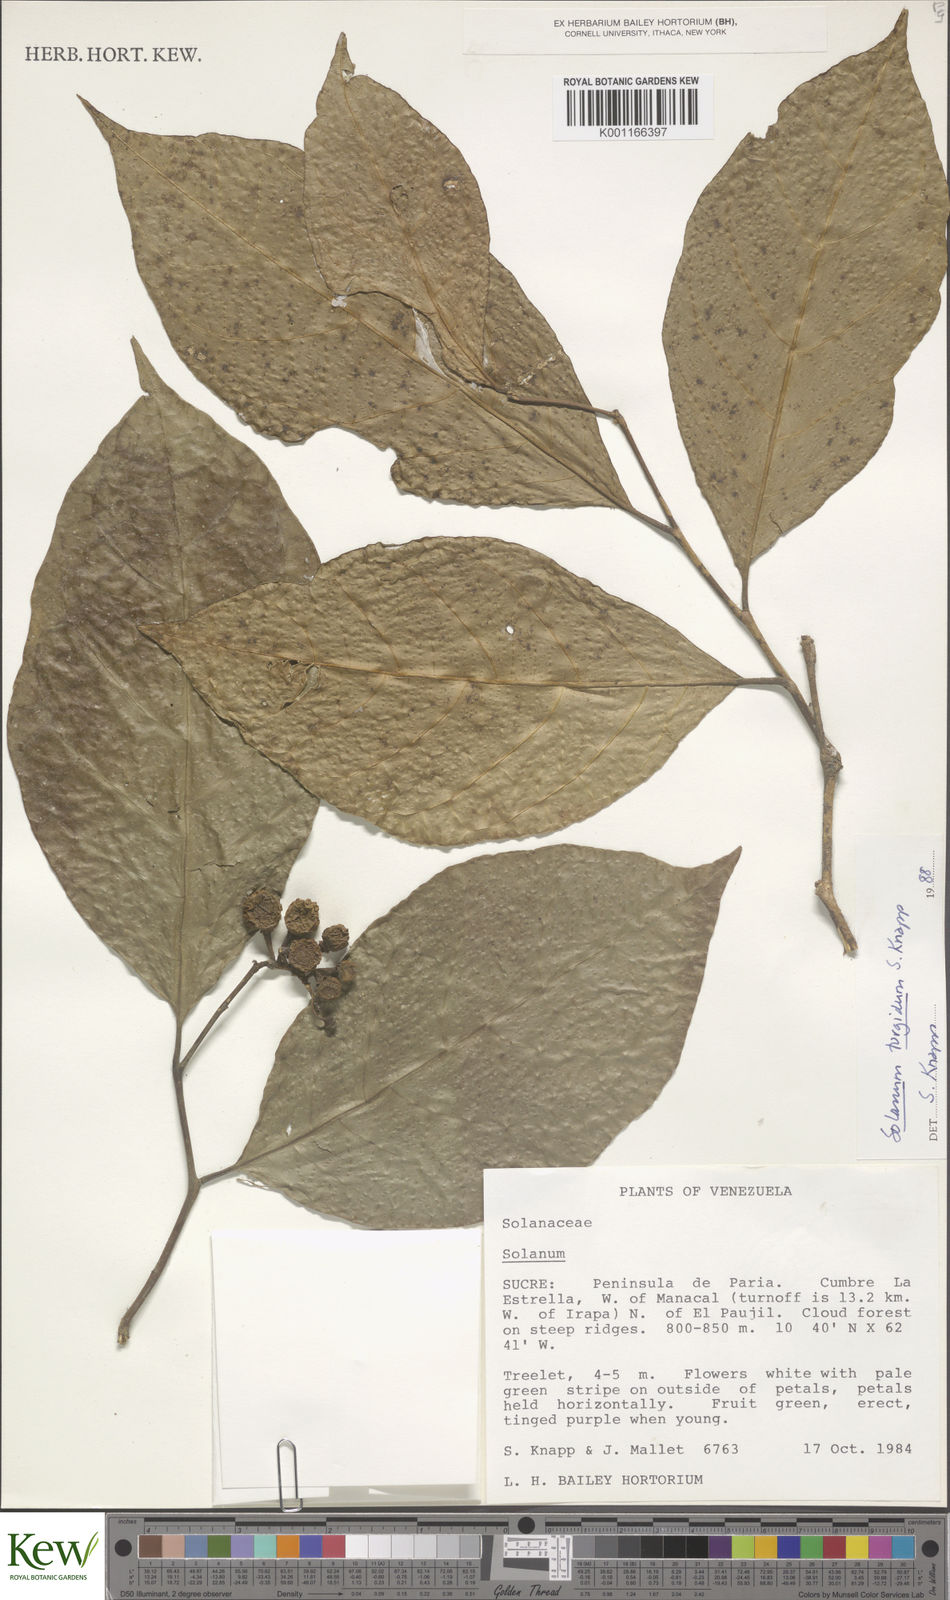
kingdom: Plantae
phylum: Tracheophyta
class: Magnoliopsida
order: Solanales
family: Solanaceae
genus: Solanum
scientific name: Solanum turgidum
